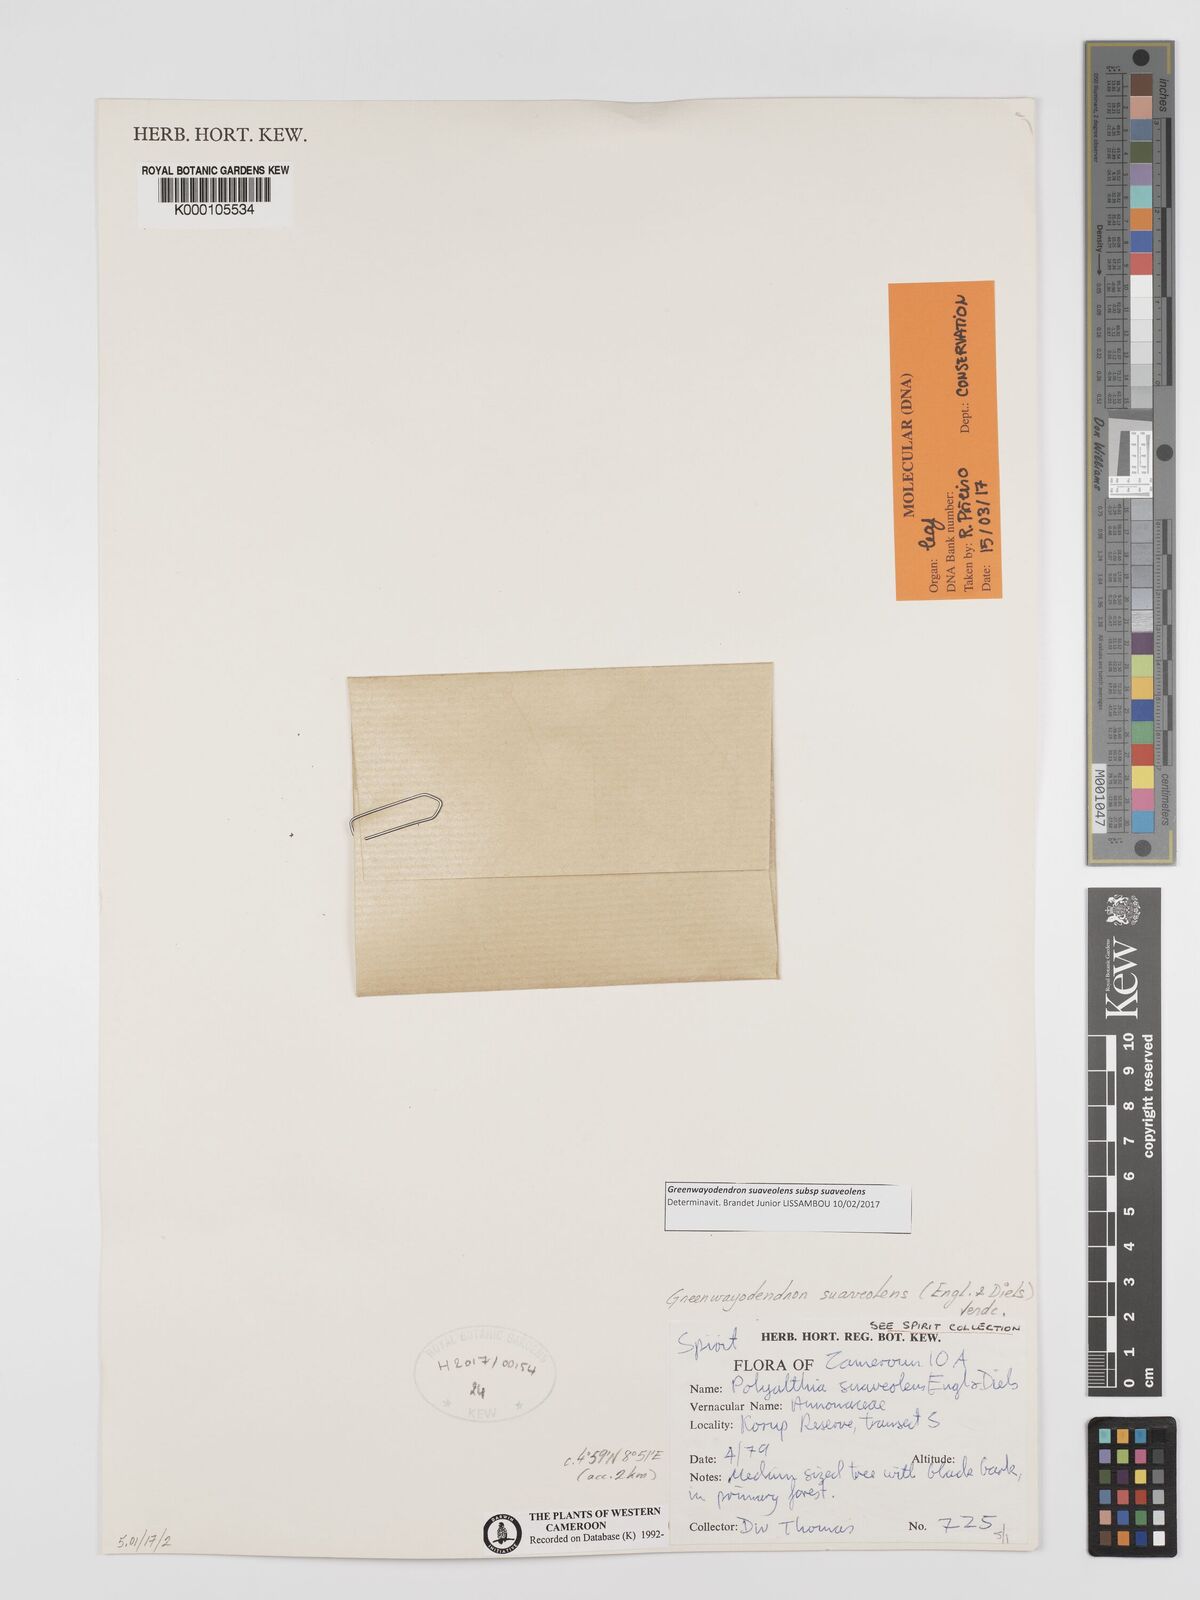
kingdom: Plantae
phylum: Tracheophyta
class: Magnoliopsida
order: Magnoliales
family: Annonaceae
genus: Greenwayodendron
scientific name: Greenwayodendron suaveolens
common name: Molinda
